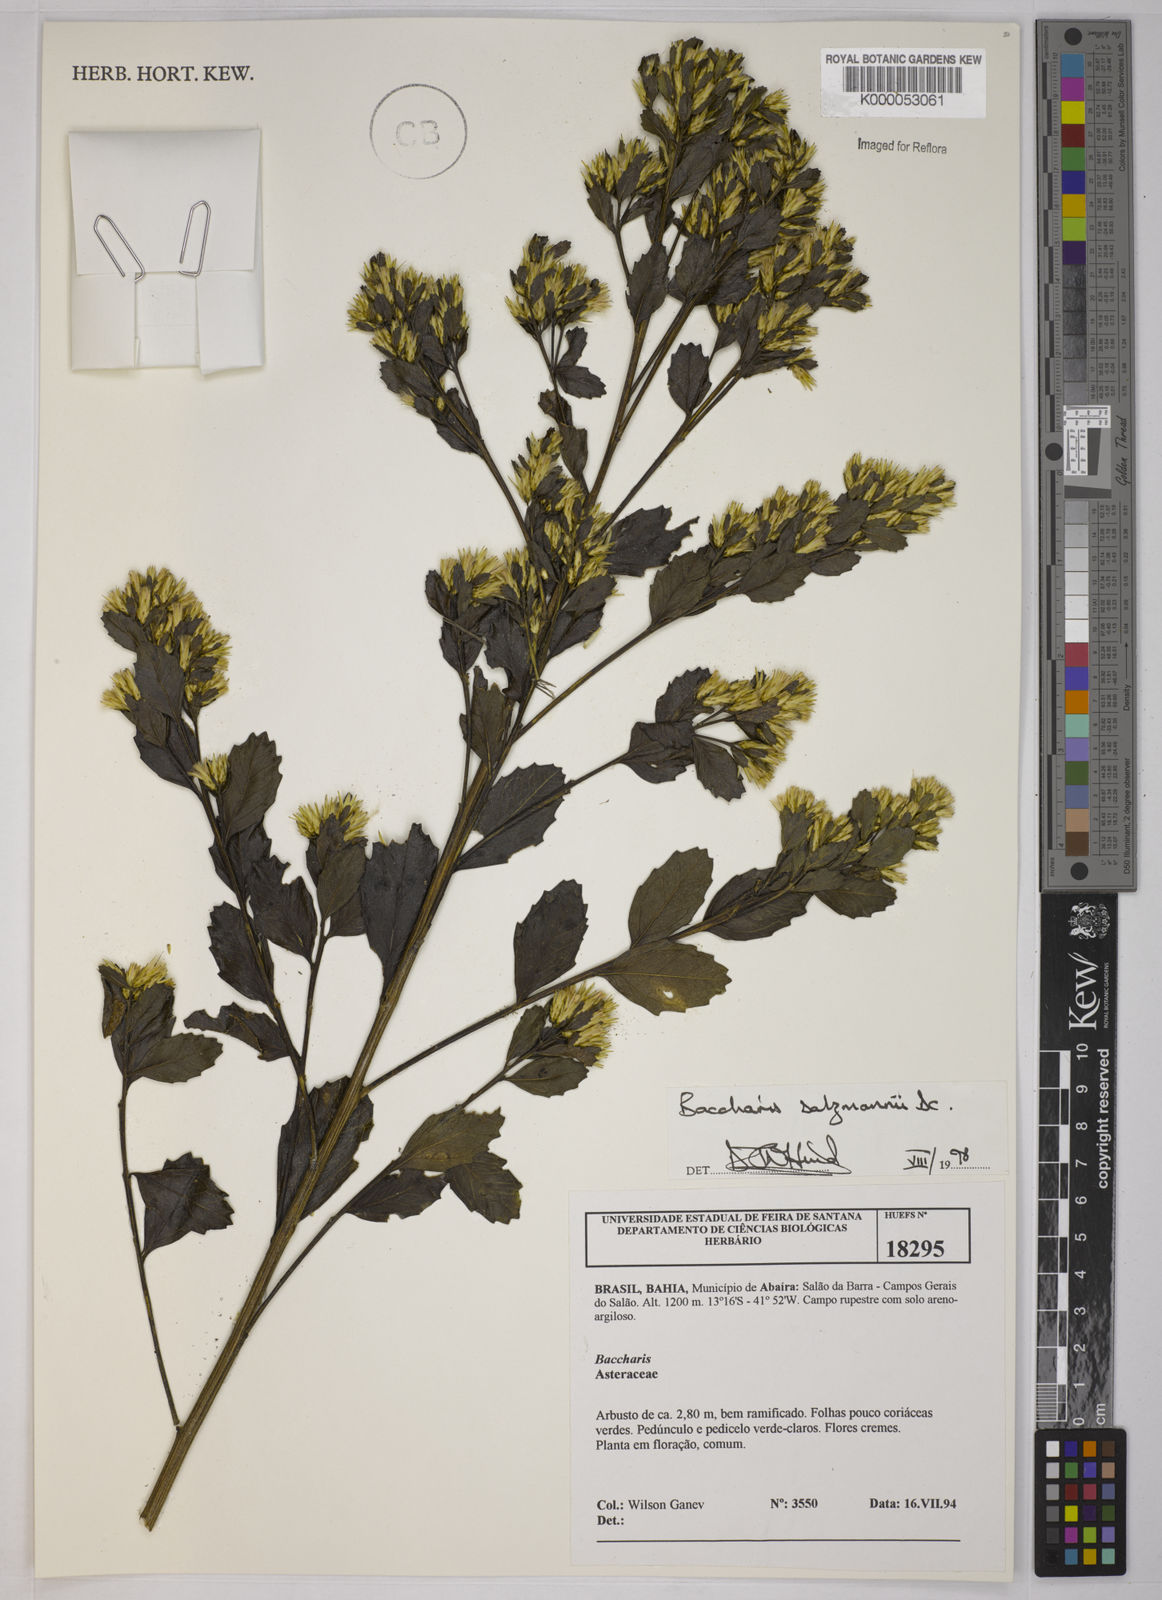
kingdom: Plantae
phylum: Tracheophyta
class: Magnoliopsida
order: Asterales
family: Asteraceae
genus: Baccharis
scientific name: Baccharis retusa
